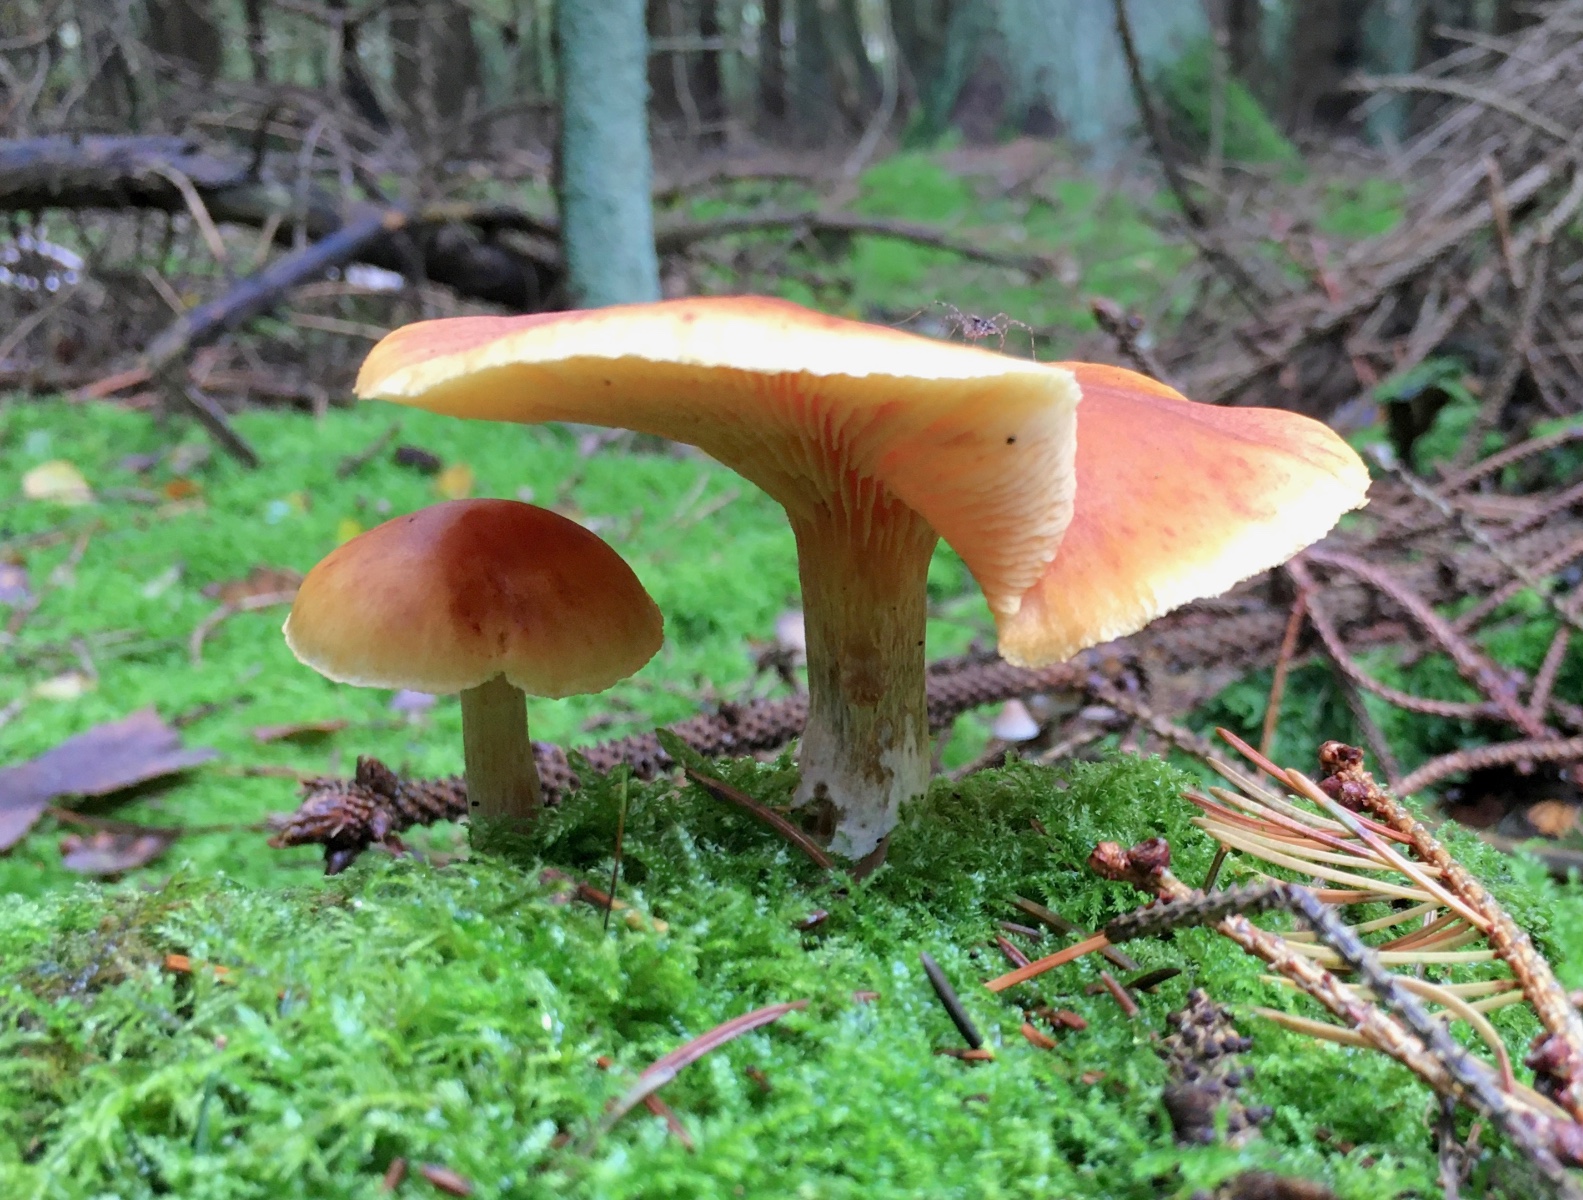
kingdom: Fungi
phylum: Basidiomycota
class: Agaricomycetes
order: Agaricales
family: Hymenogastraceae
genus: Gymnopilus
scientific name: Gymnopilus penetrans
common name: plettet flammehat
